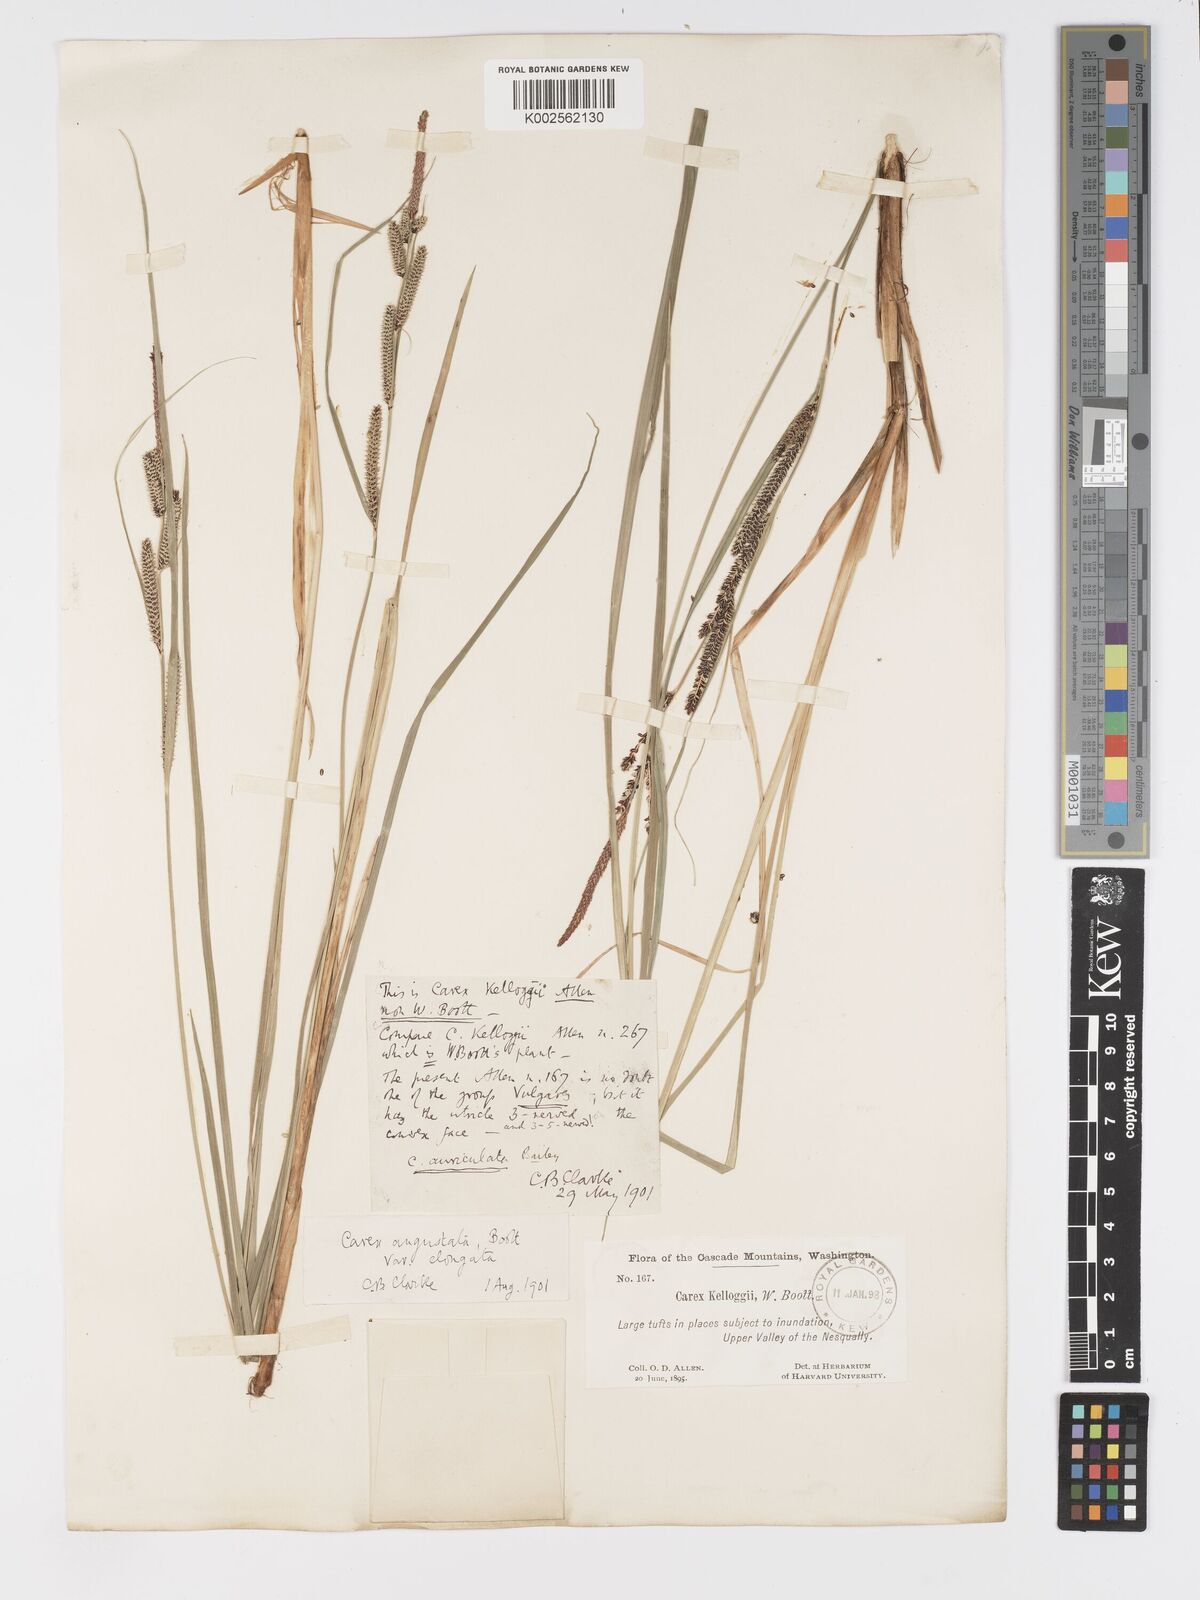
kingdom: Plantae
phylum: Tracheophyta
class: Liliopsida
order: Poales
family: Cyperaceae
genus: Carex
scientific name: Carex kelloggii
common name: Kellogg's sedge
